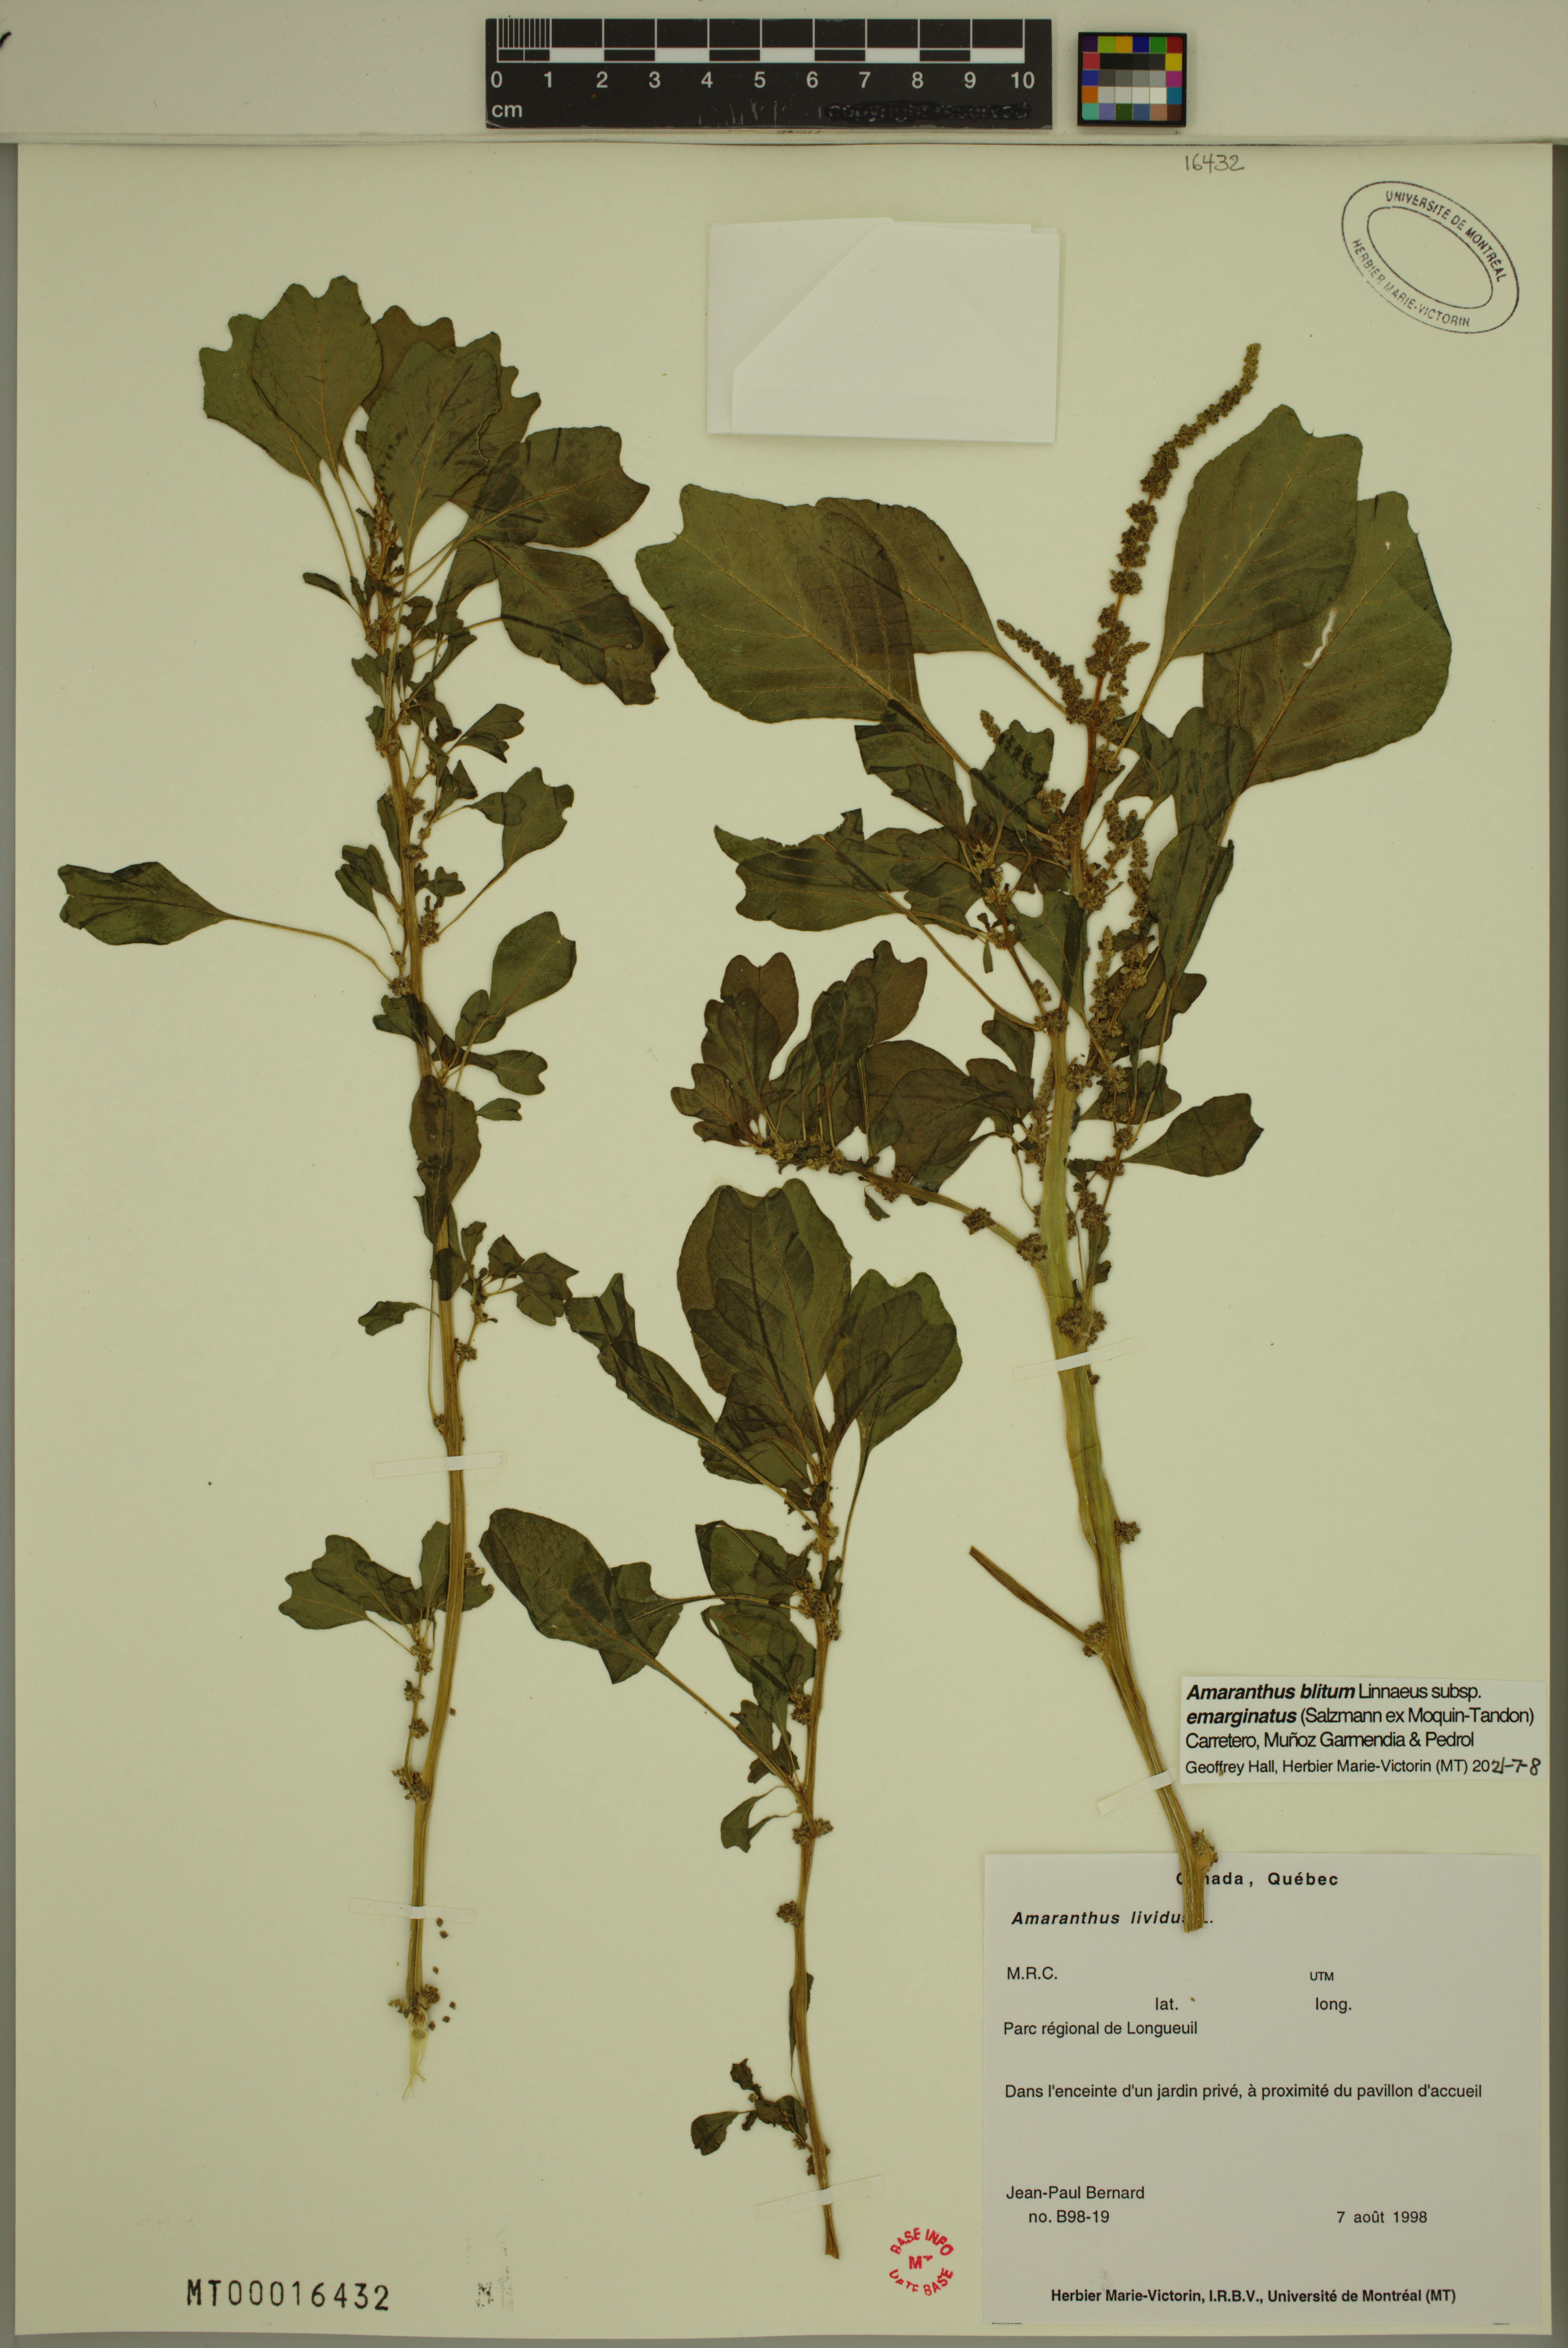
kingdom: Plantae
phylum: Tracheophyta
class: Magnoliopsida
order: Caryophyllales
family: Amaranthaceae
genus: Amaranthus
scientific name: Amaranthus emarginatus
